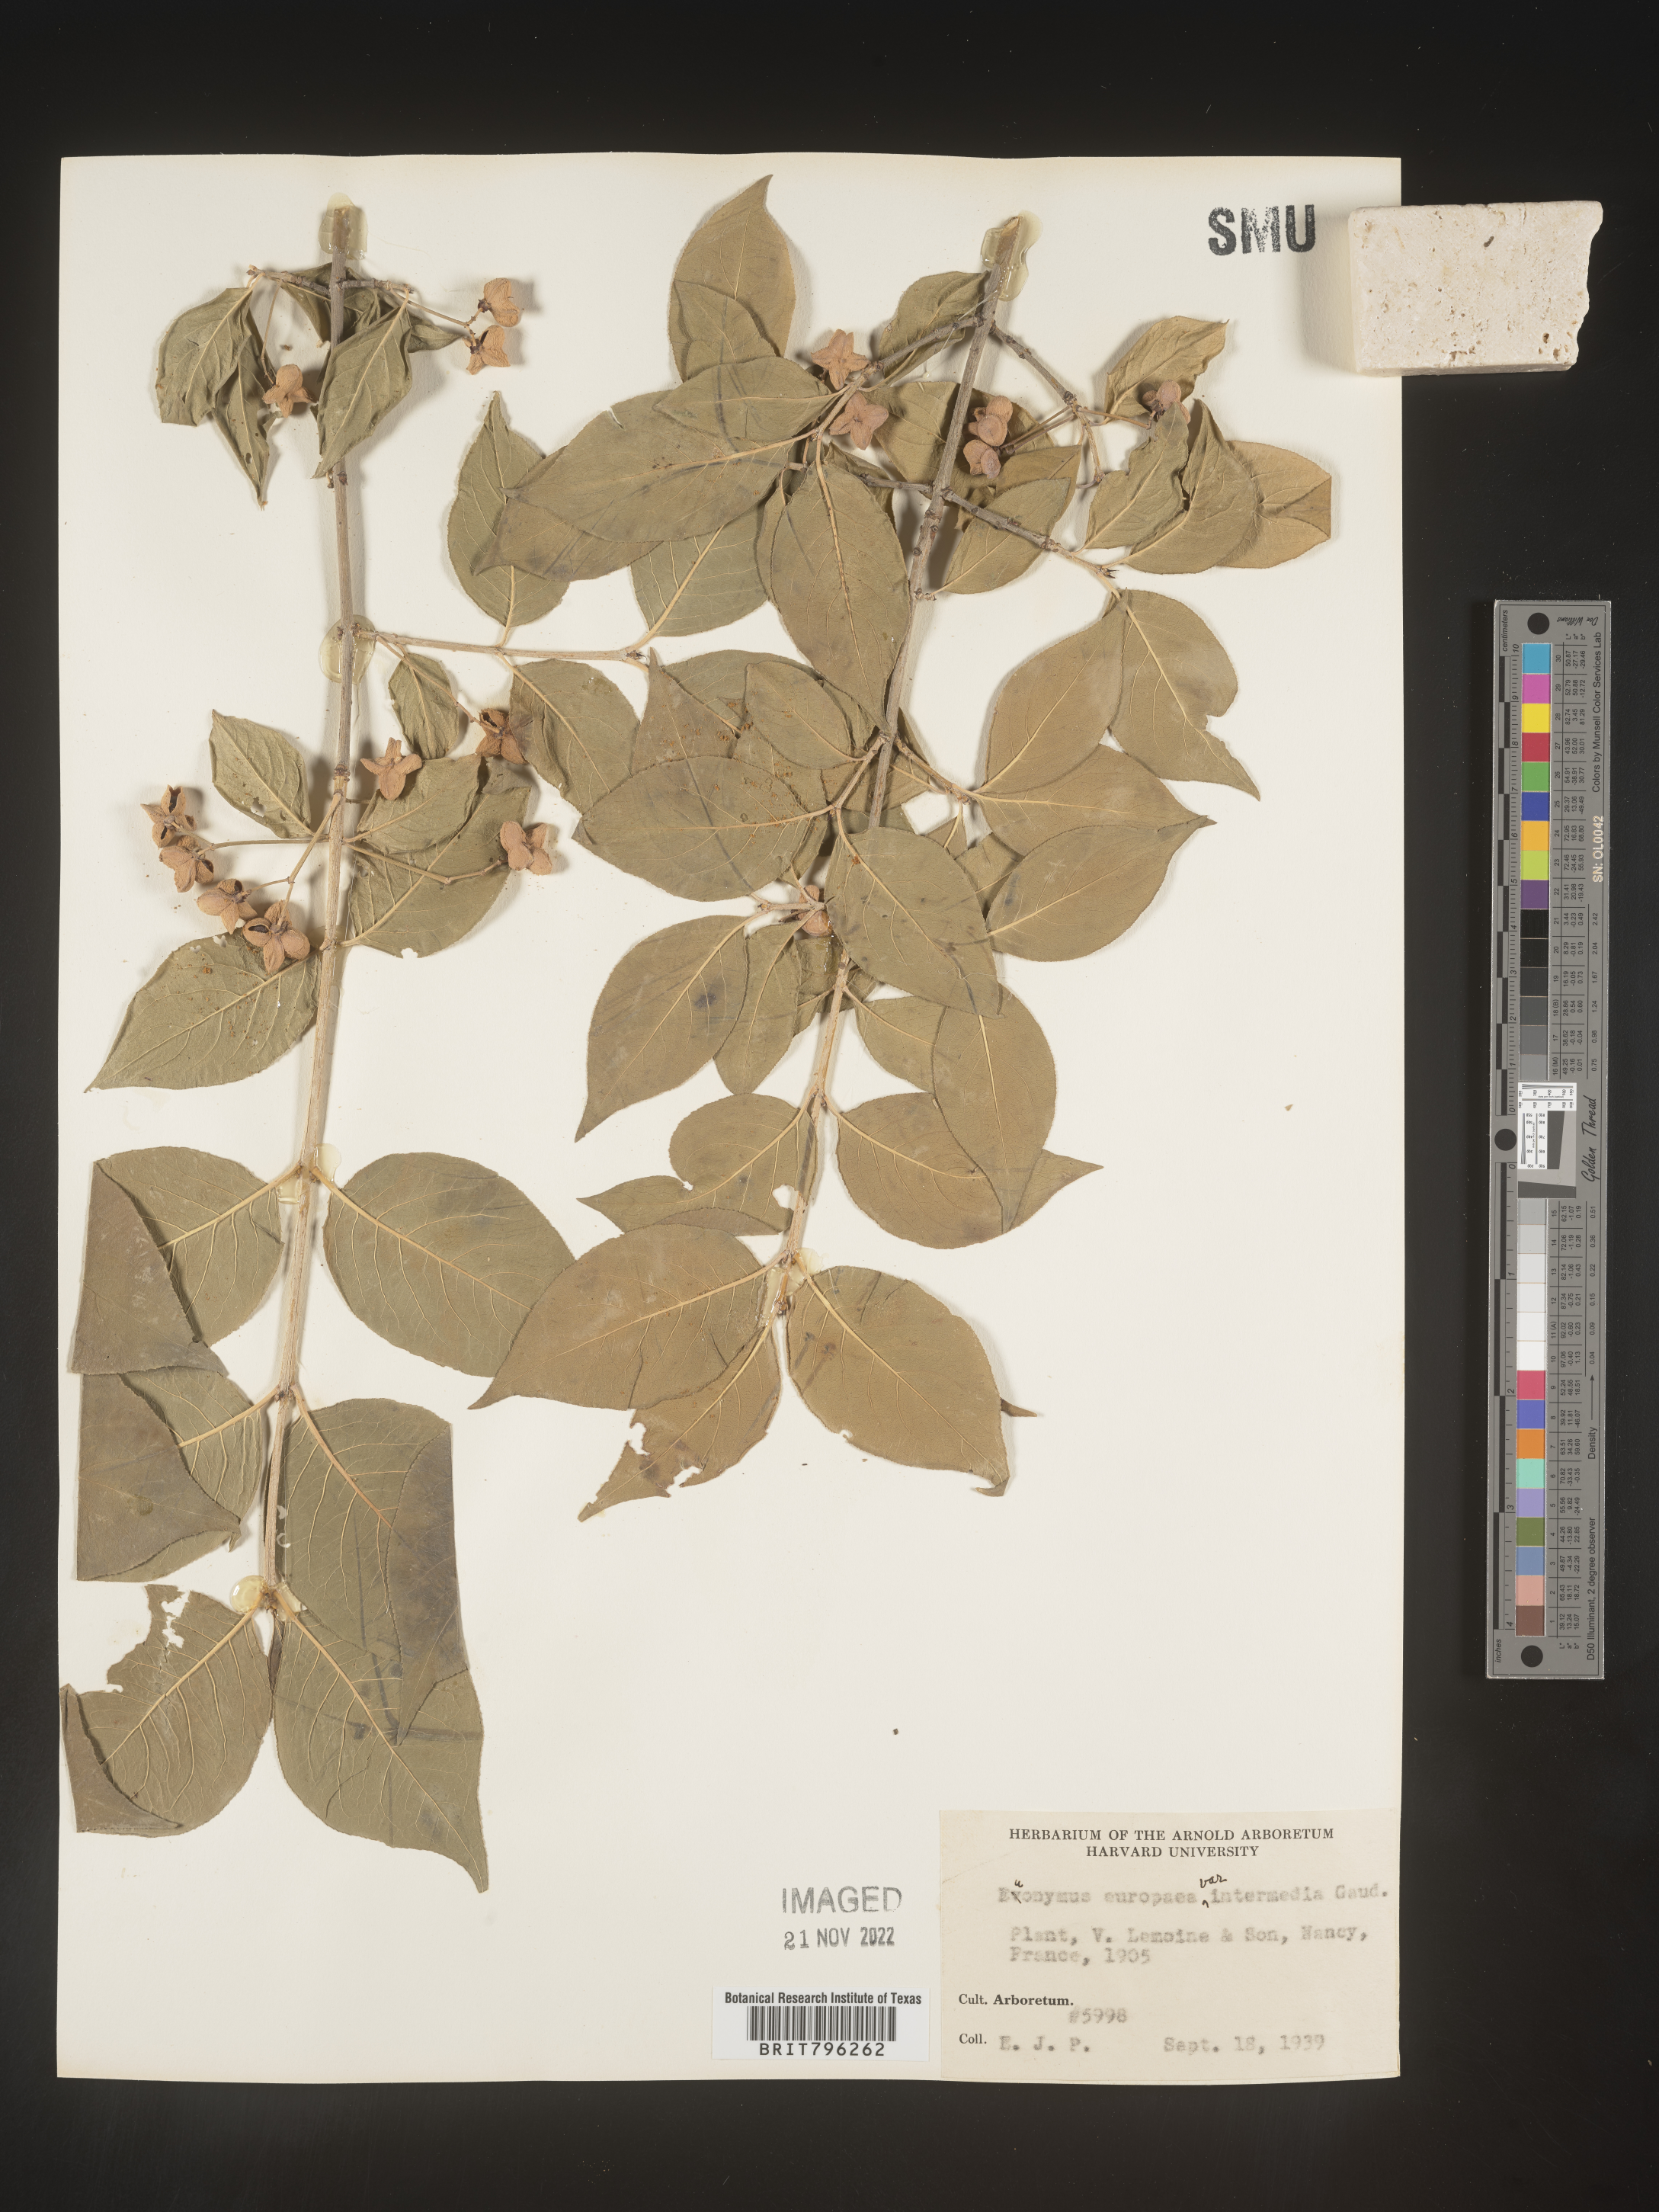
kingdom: Plantae
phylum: Tracheophyta
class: Magnoliopsida
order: Celastrales
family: Celastraceae
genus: Euonymus
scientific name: Euonymus europaeus
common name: Spindle
